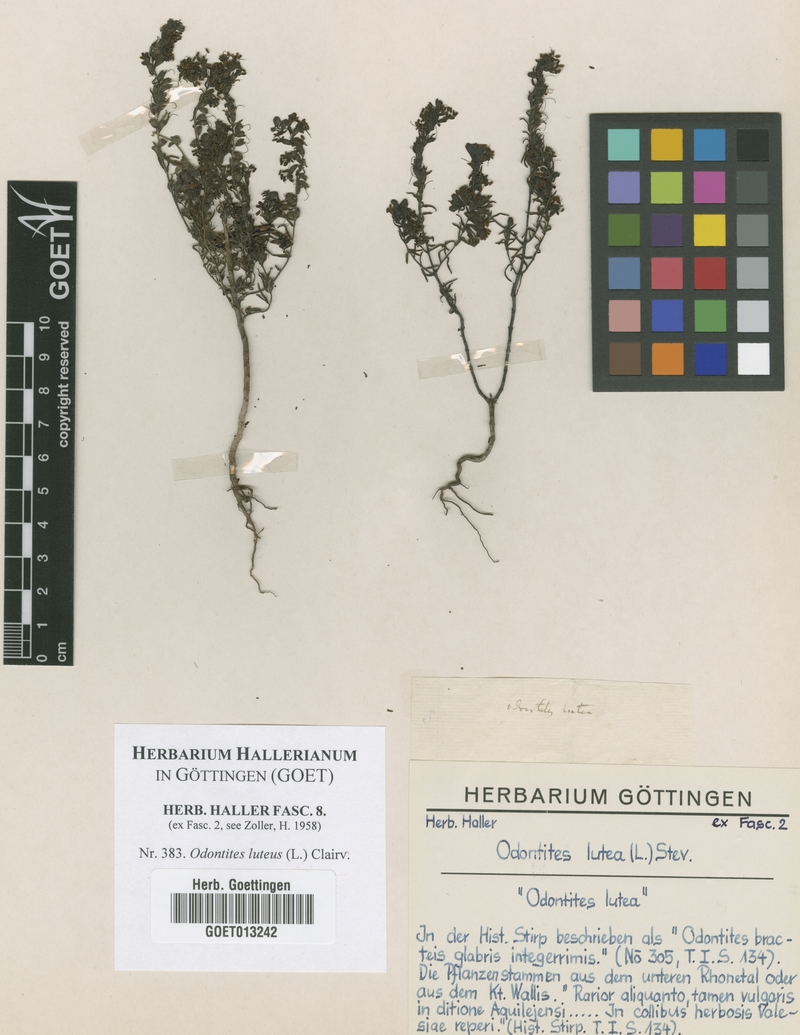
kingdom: Plantae
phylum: Tracheophyta
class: Magnoliopsida
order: Lamiales
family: Orobanchaceae
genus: Odontites
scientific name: Odontites luteus
